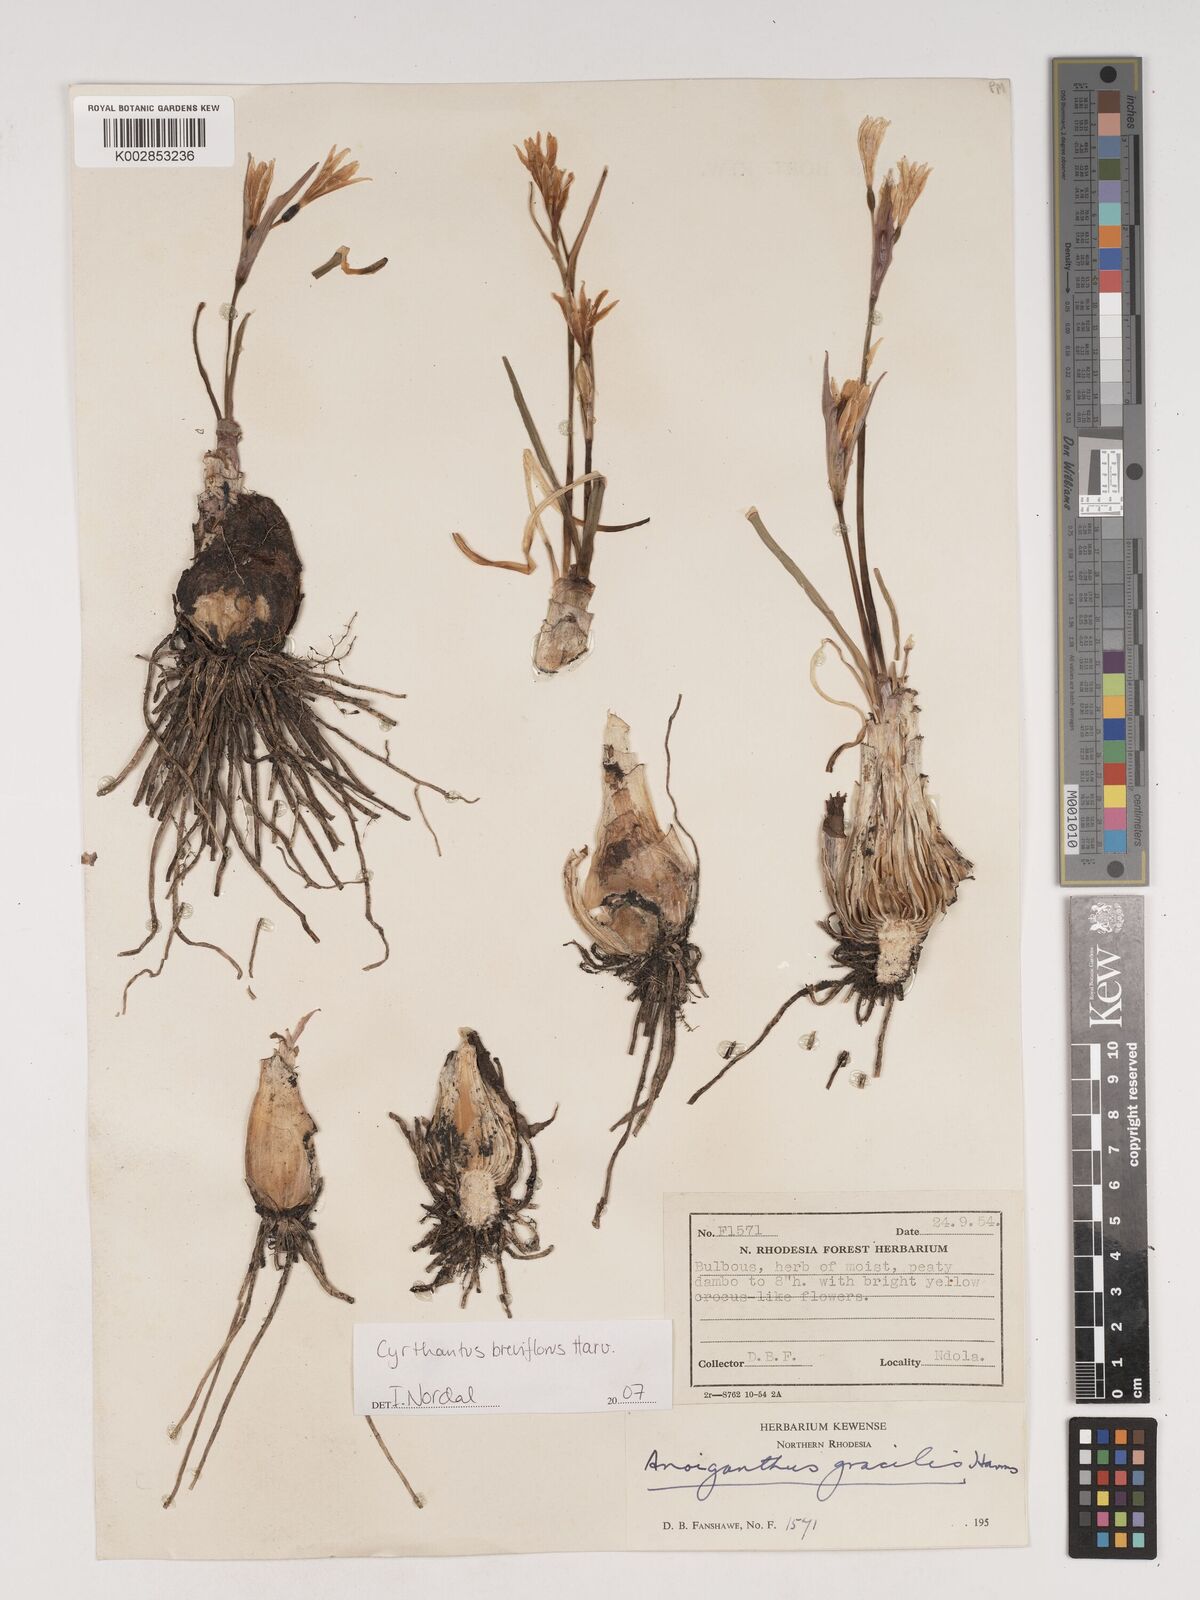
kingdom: Plantae
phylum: Tracheophyta
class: Liliopsida
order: Asparagales
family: Amaryllidaceae
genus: Cyrtanthus
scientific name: Cyrtanthus breviflorus
